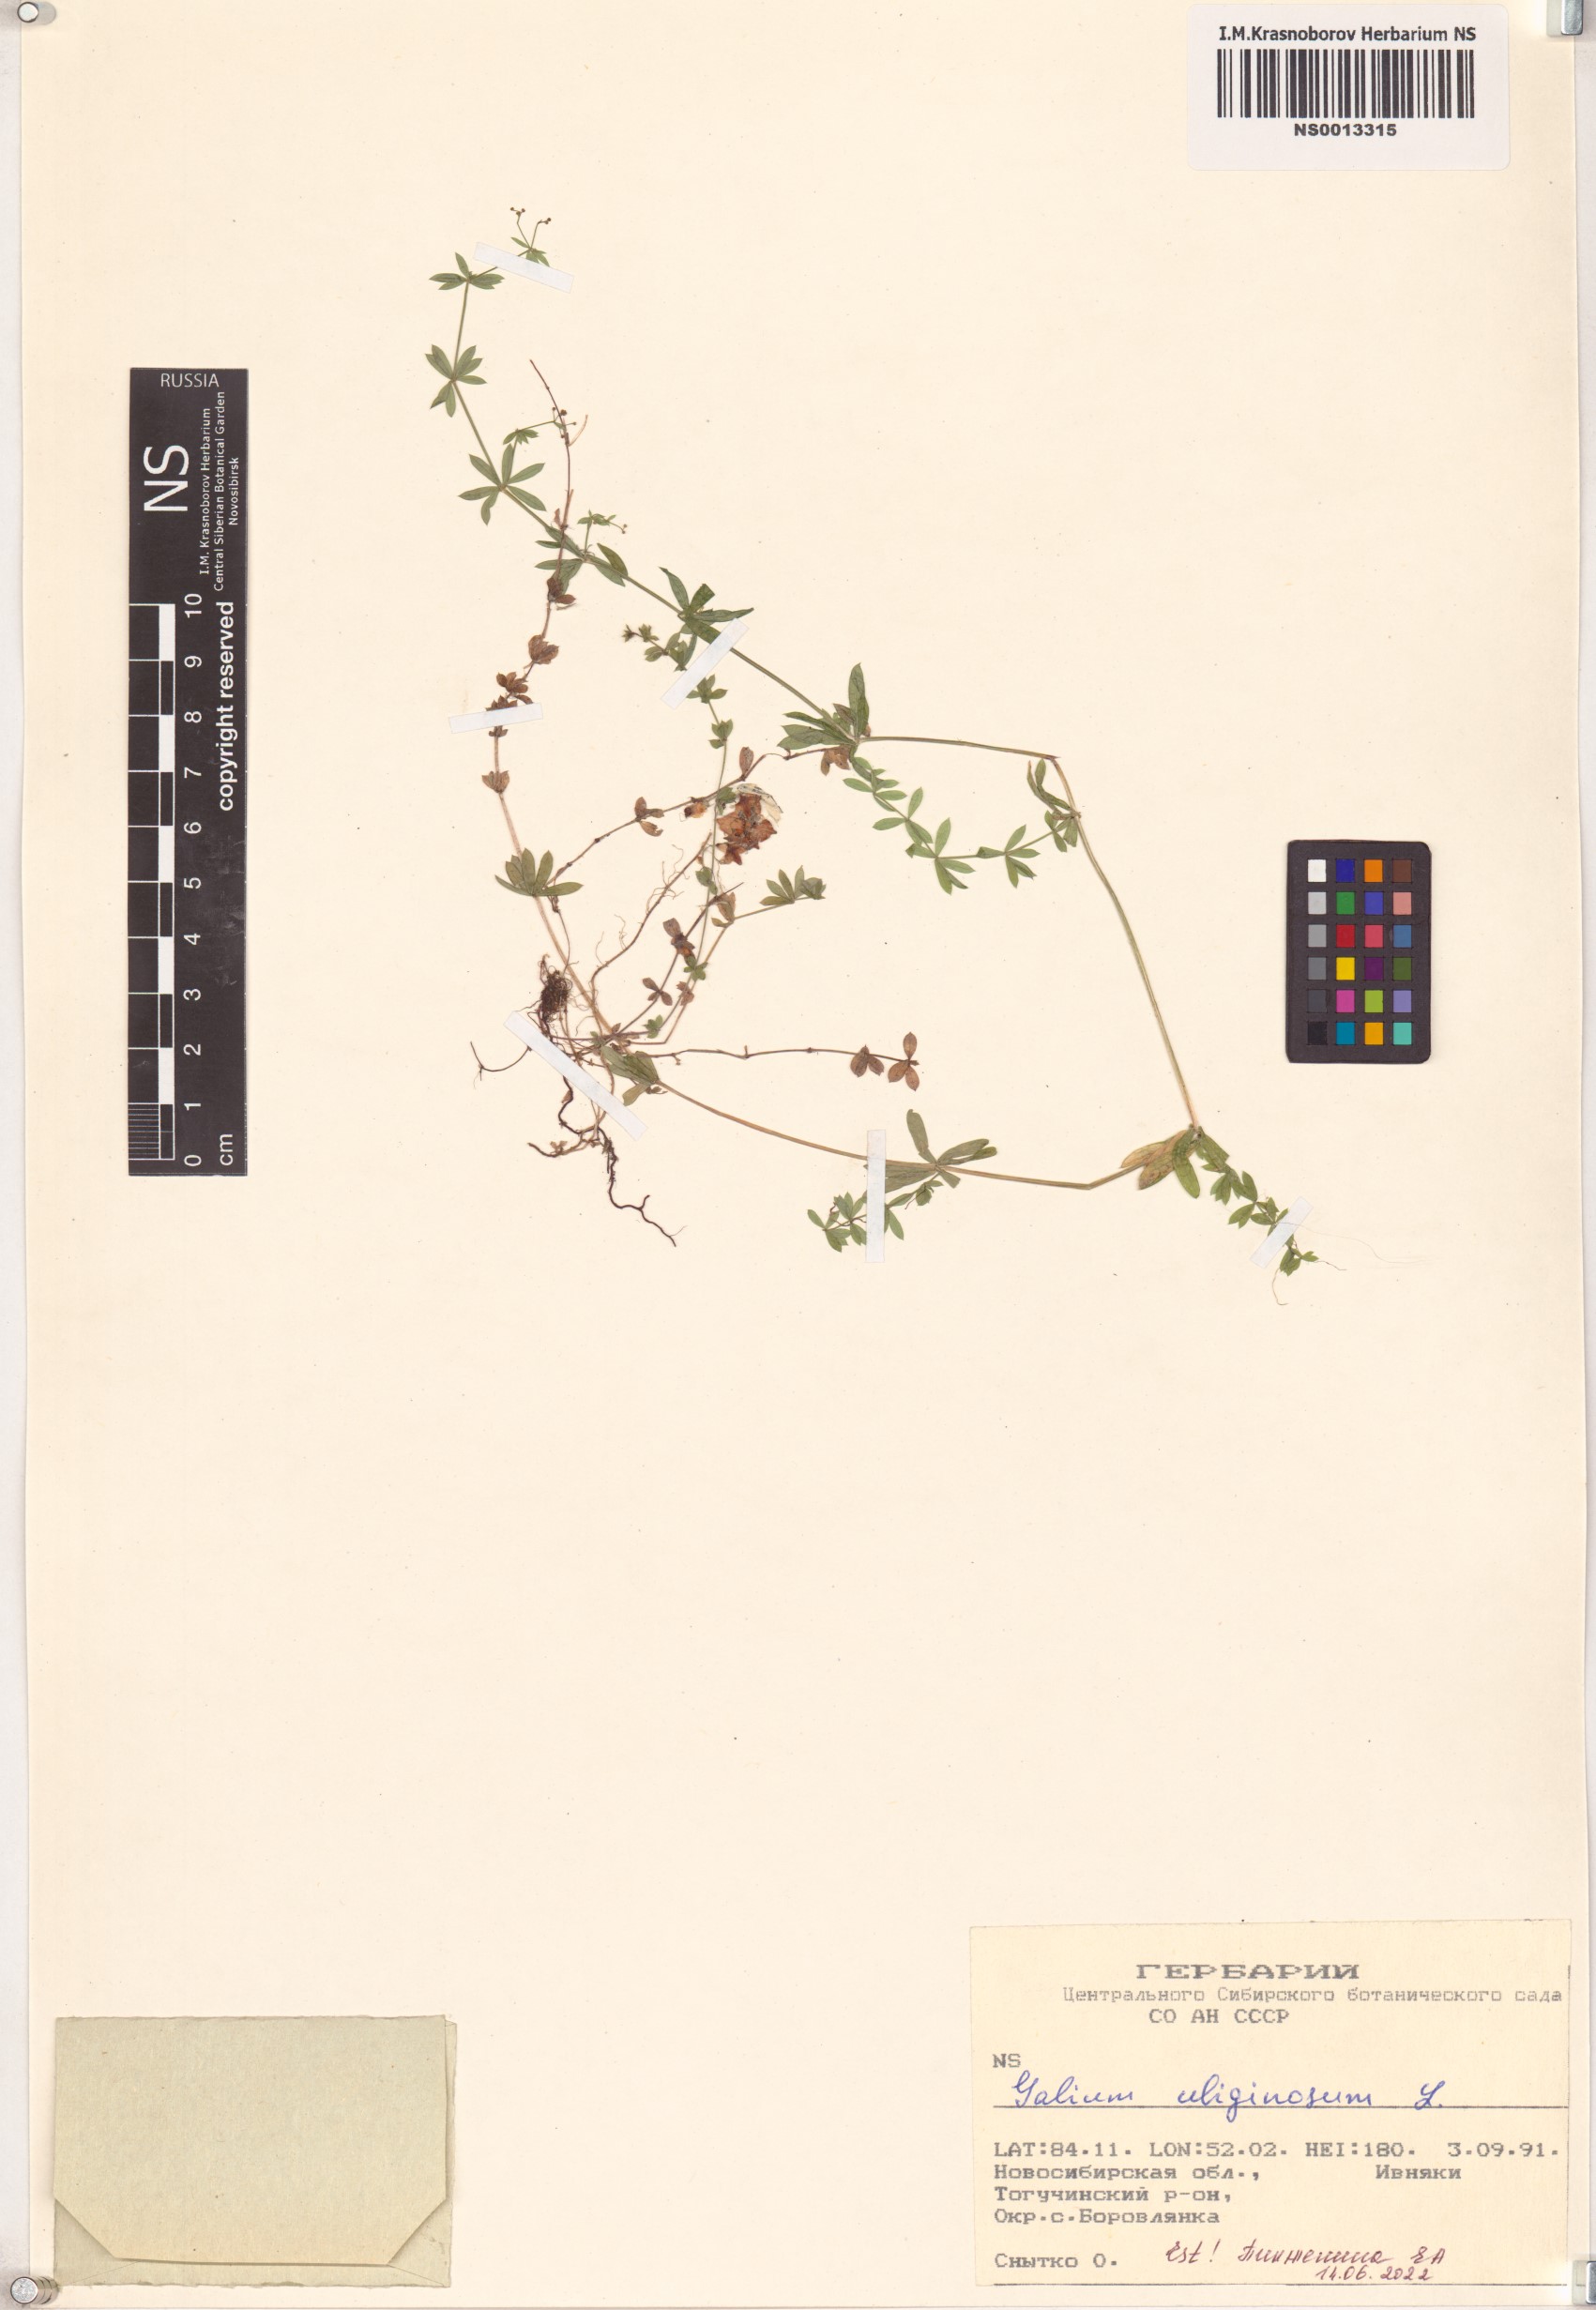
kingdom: Plantae
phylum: Tracheophyta
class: Magnoliopsida
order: Gentianales
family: Rubiaceae
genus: Galium
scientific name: Galium uliginosum
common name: Fen bedstraw
